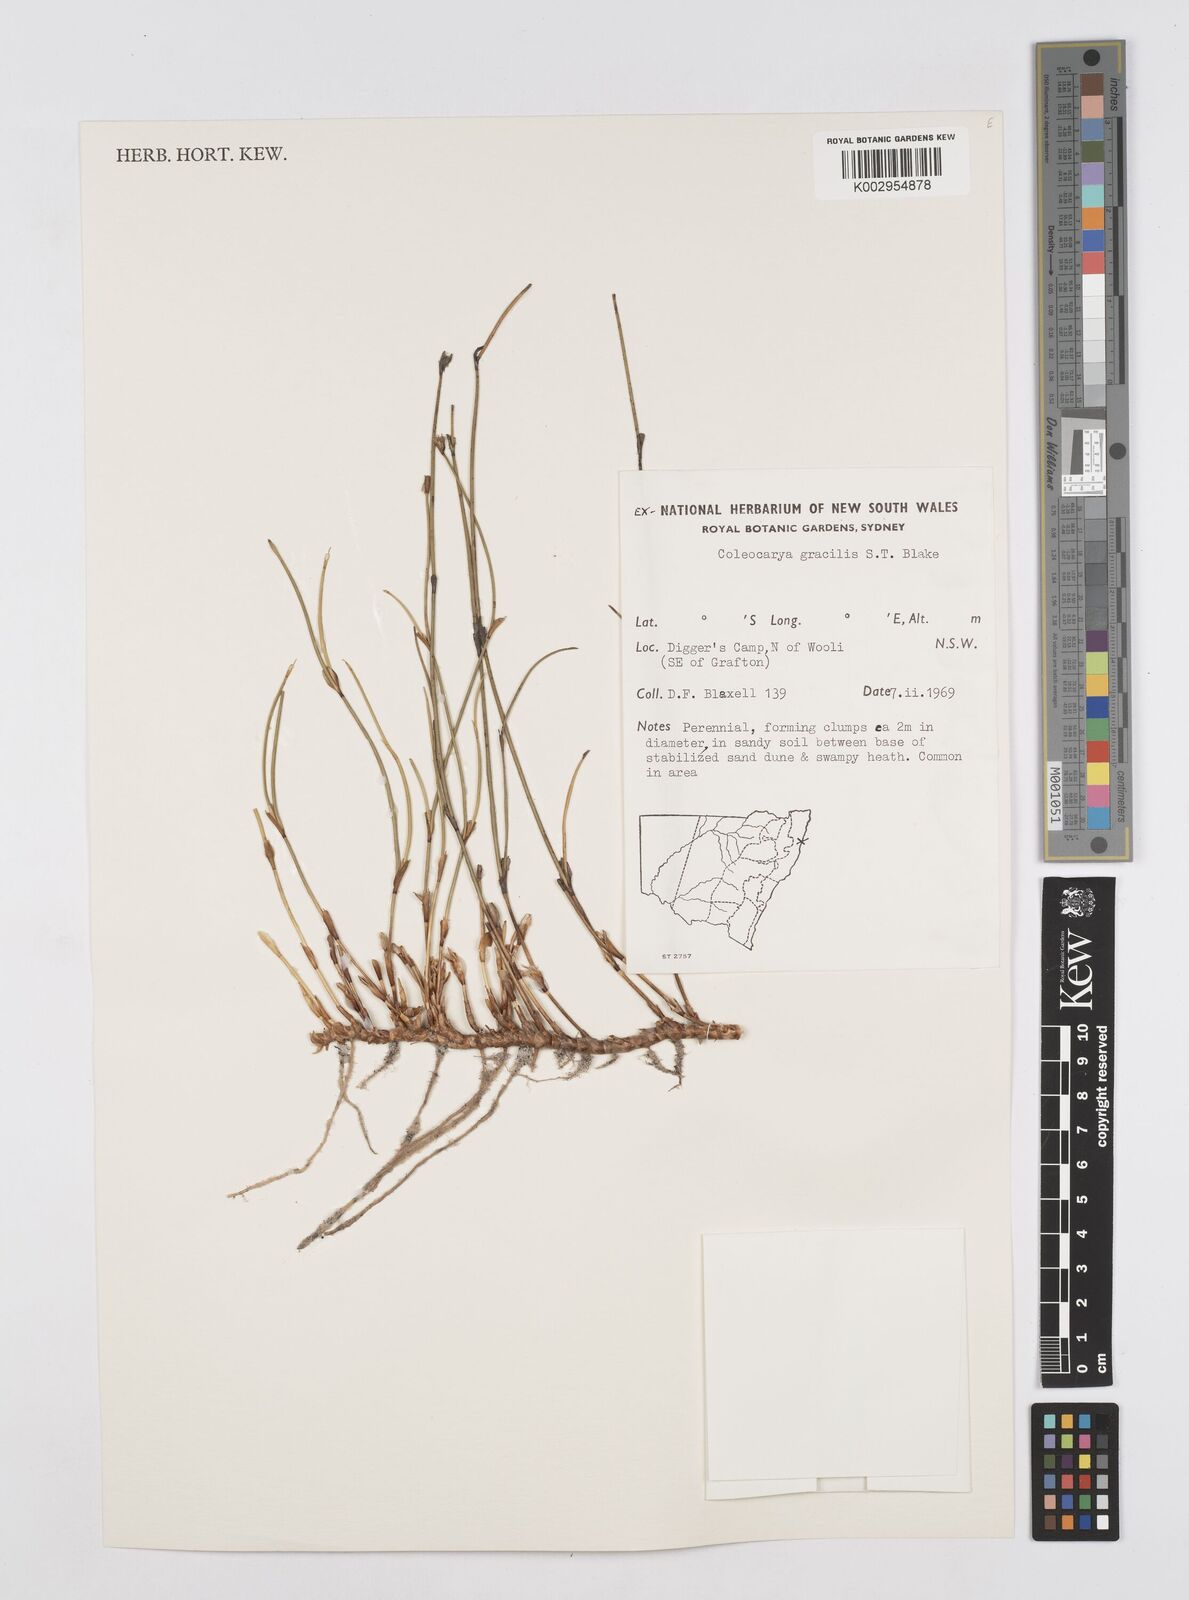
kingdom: Plantae
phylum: Tracheophyta
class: Liliopsida
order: Poales
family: Restionaceae
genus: Coleocarya
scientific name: Coleocarya gracilis
